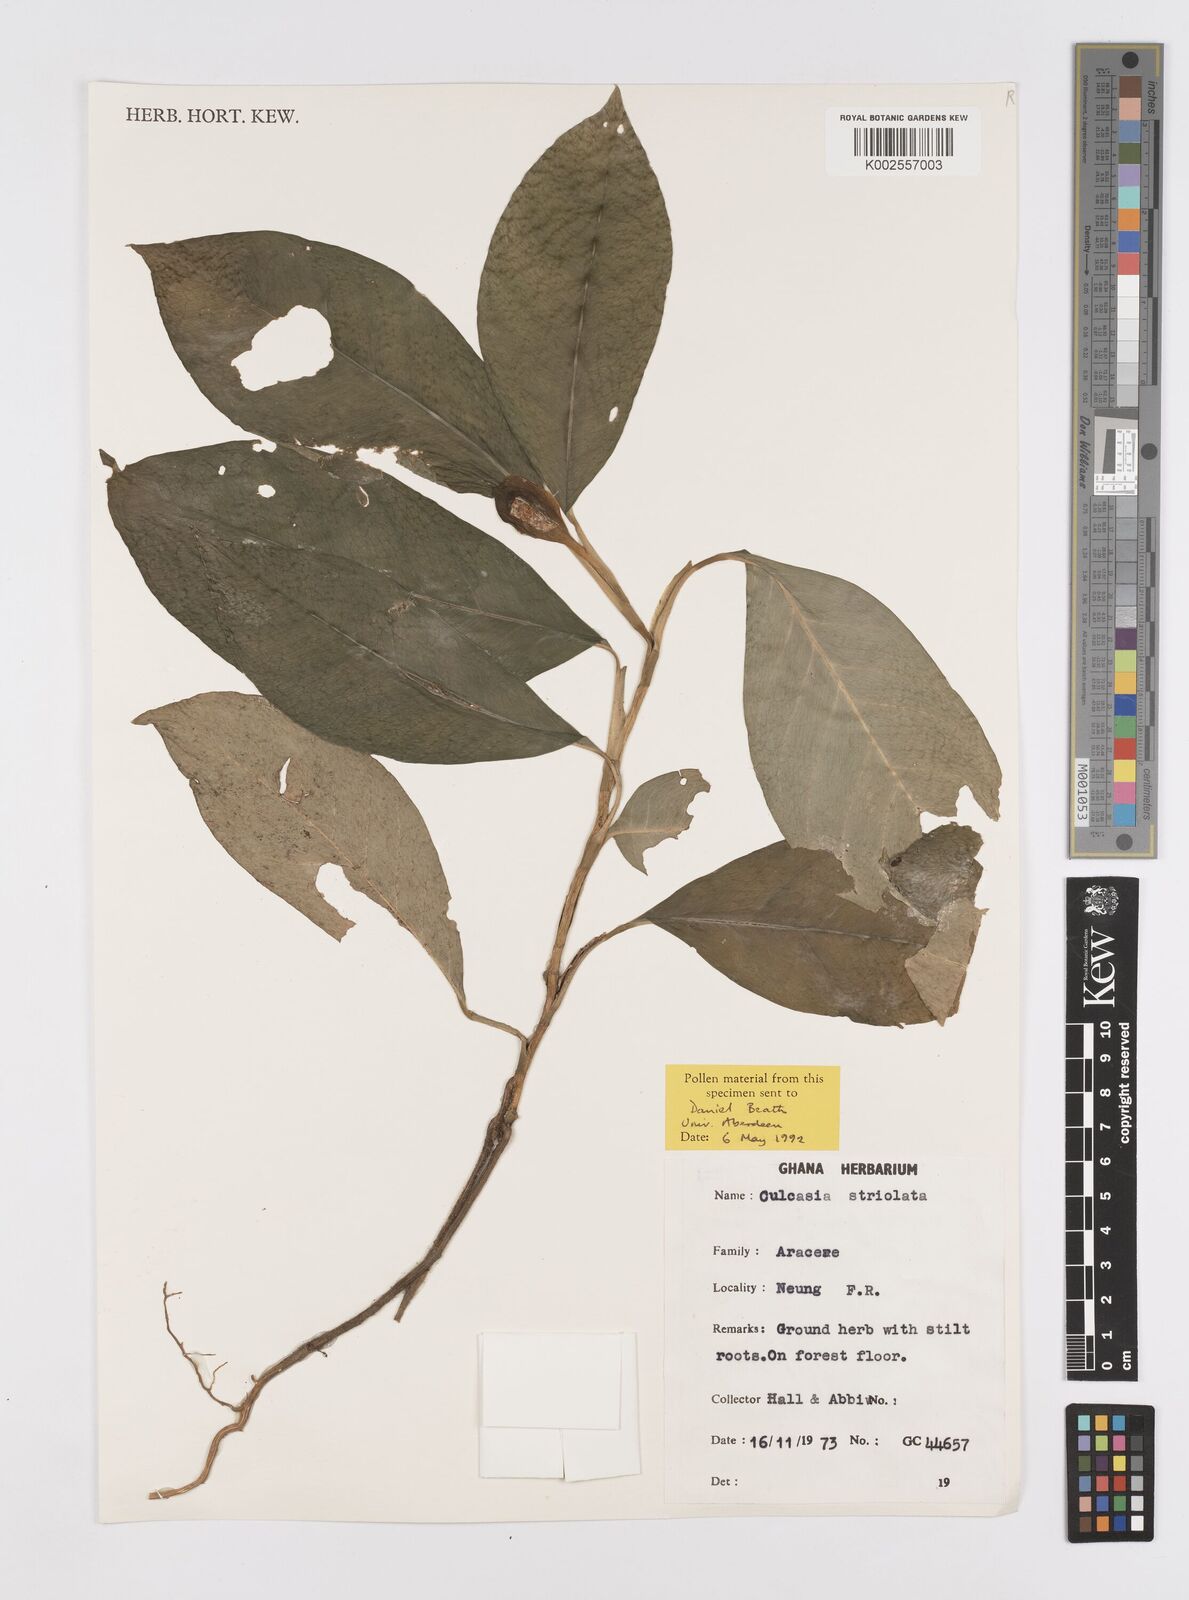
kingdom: Plantae
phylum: Tracheophyta
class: Liliopsida
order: Alismatales
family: Araceae
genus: Culcasia
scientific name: Culcasia striolata
